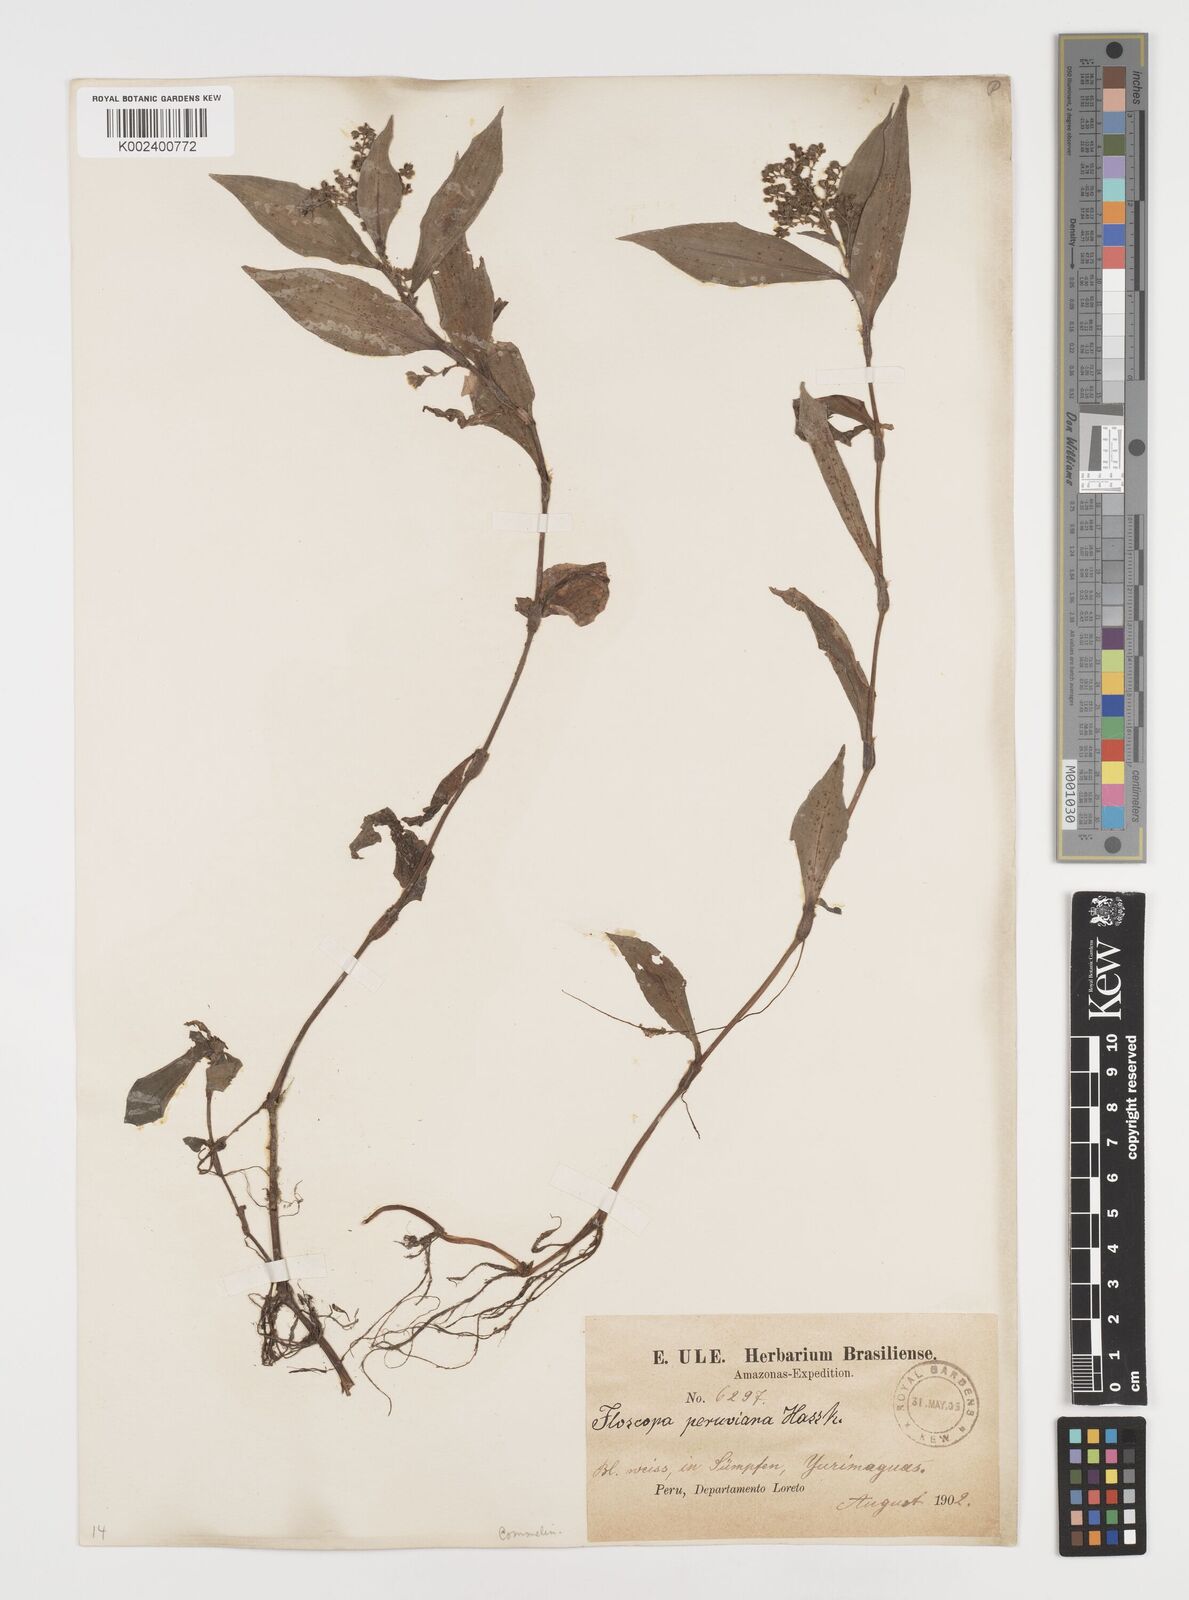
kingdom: Plantae
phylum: Tracheophyta
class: Liliopsida
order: Commelinales
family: Commelinaceae
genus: Floscopa
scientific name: Floscopa peruviana
